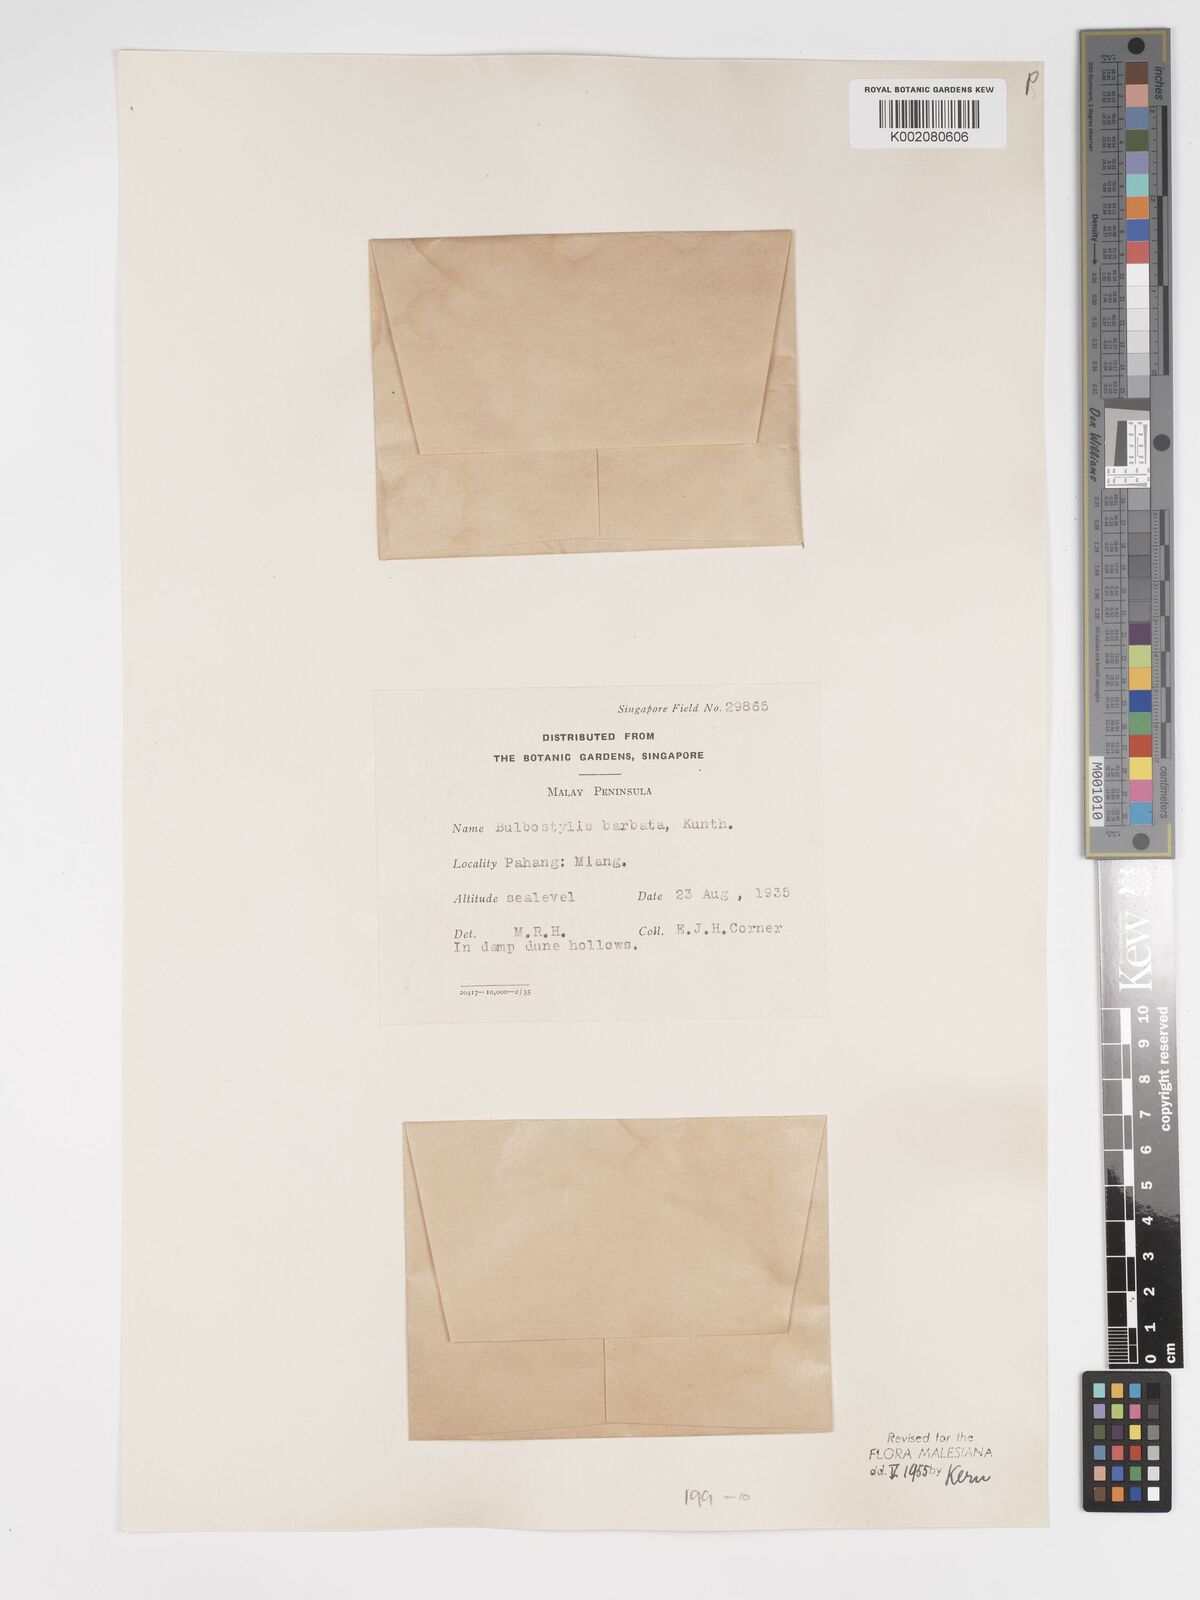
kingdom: Plantae
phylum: Tracheophyta
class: Liliopsida
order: Poales
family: Cyperaceae
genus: Bulbostylis
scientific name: Bulbostylis barbata
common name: Watergrass
